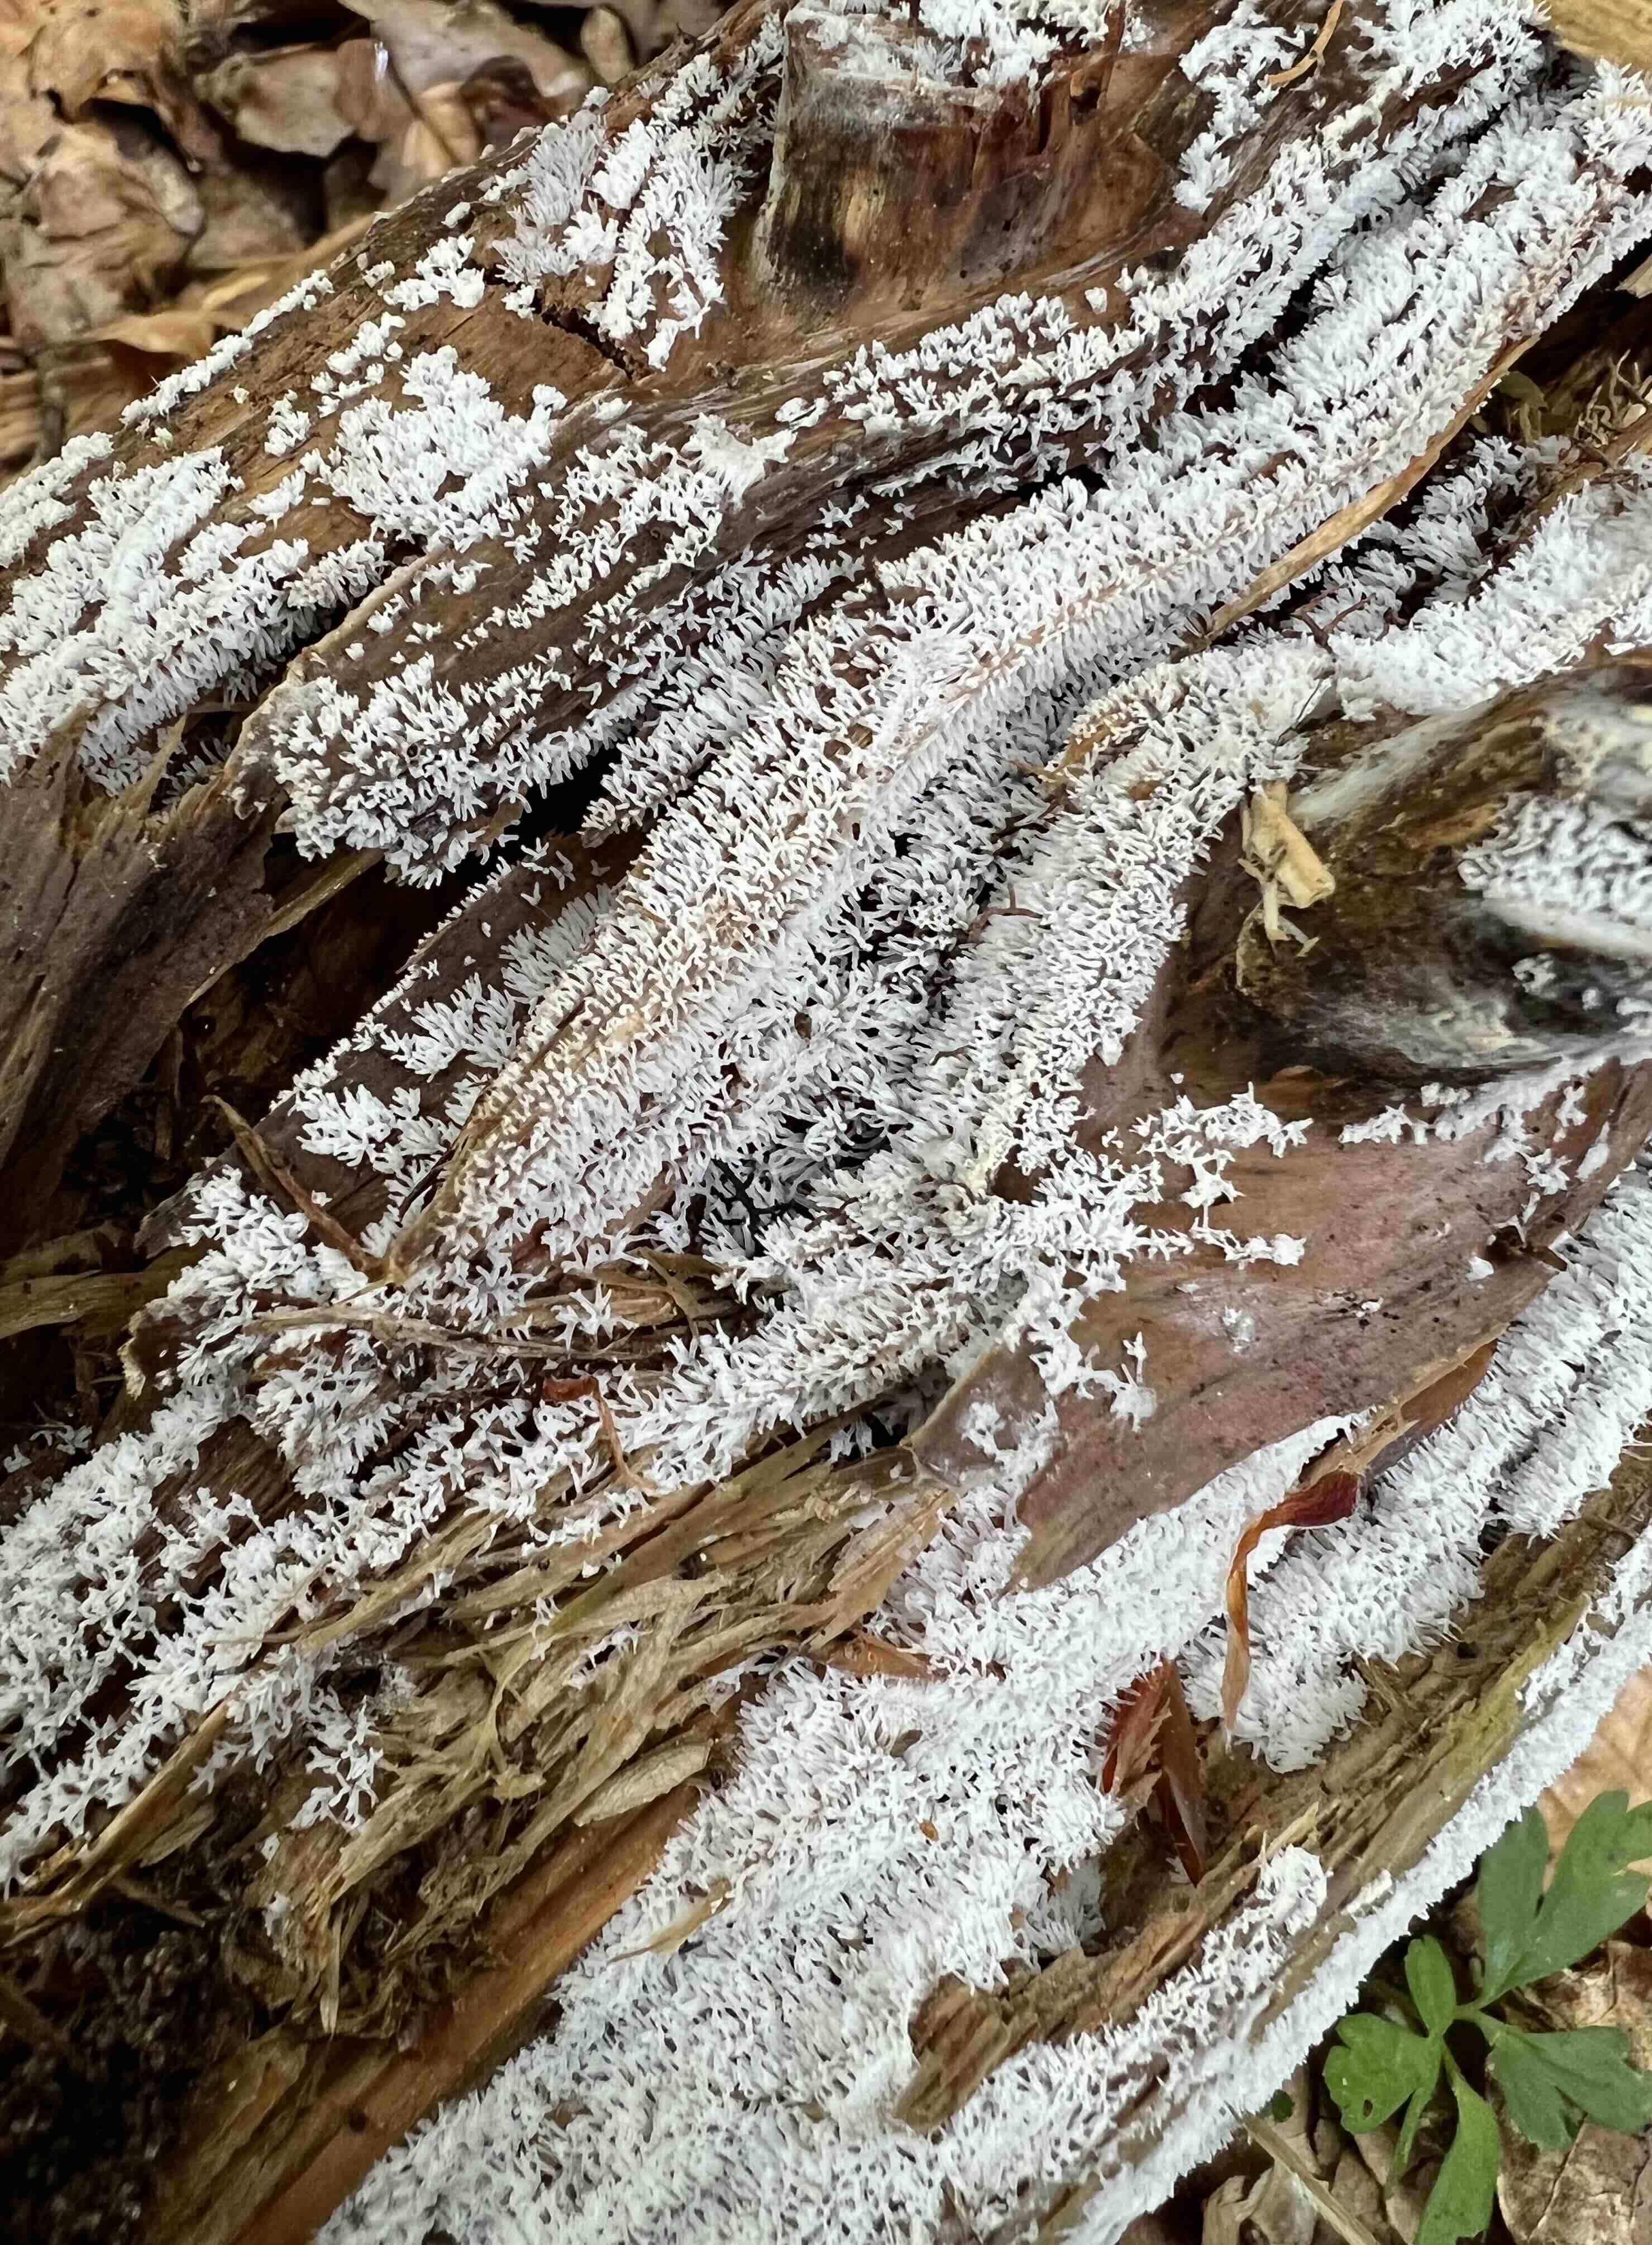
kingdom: Protozoa
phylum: Mycetozoa
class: Protosteliomycetes
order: Ceratiomyxales
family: Ceratiomyxaceae
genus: Ceratiomyxa
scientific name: Ceratiomyxa fruticulosa
